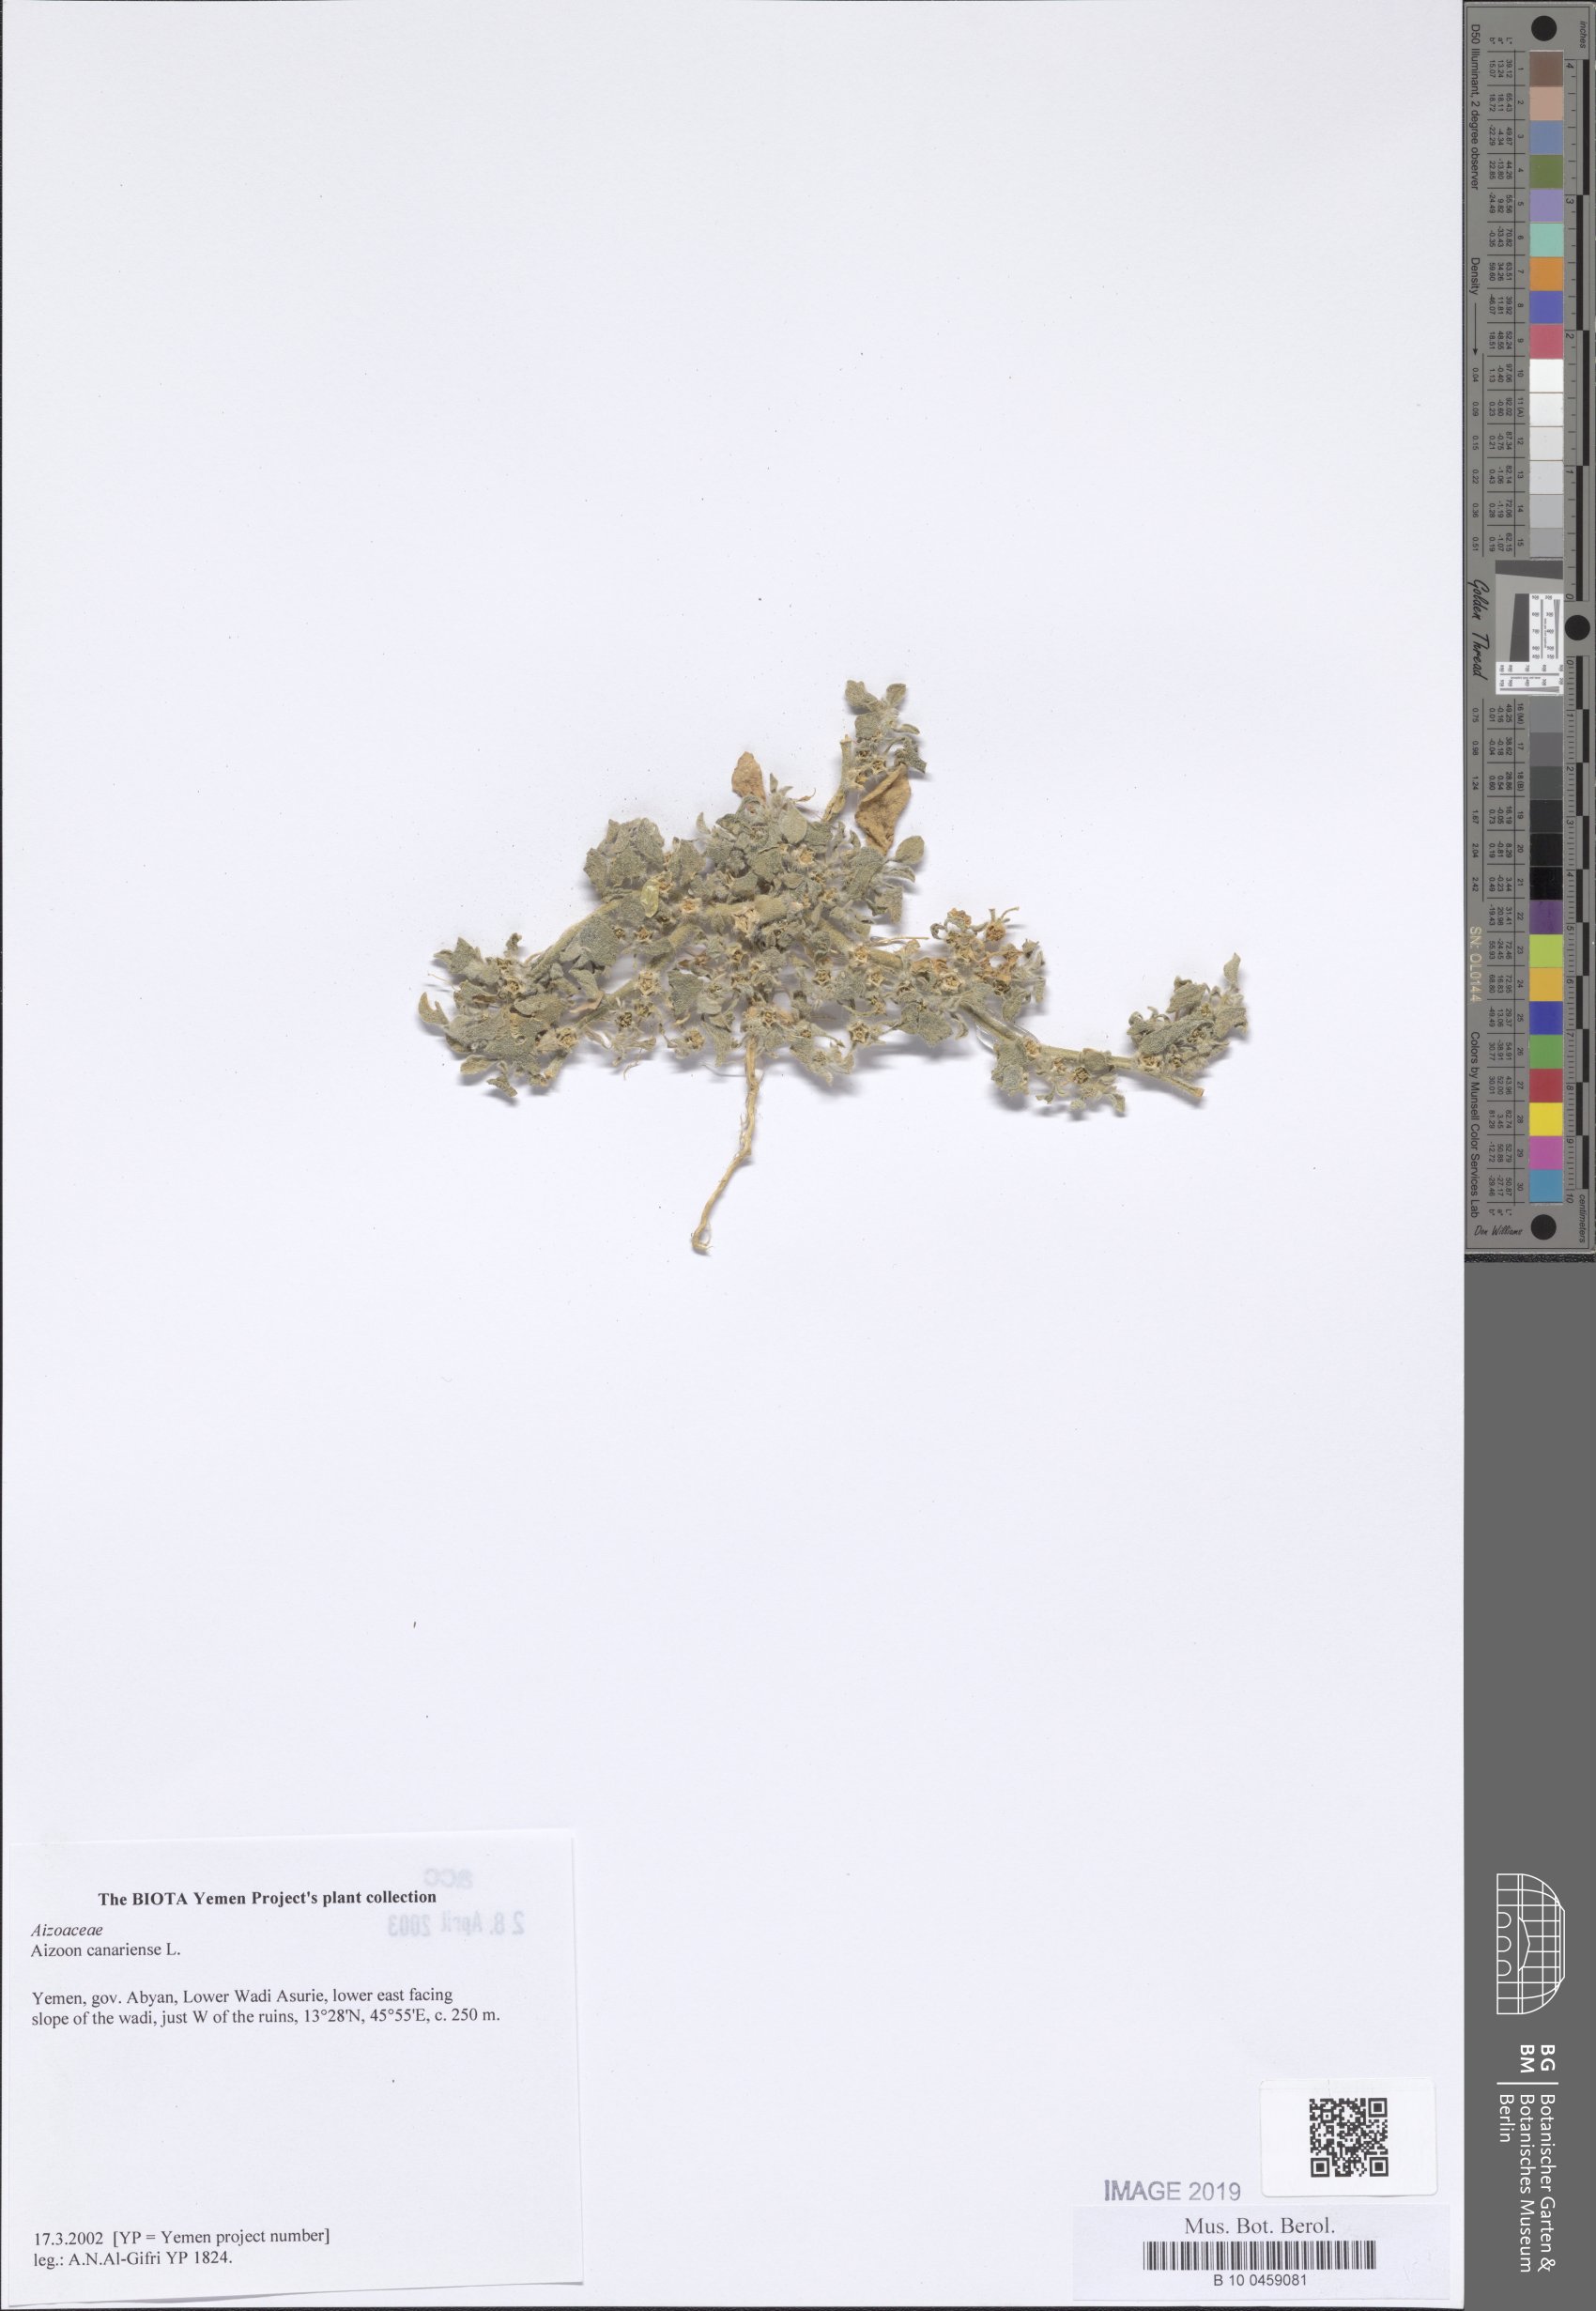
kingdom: Plantae
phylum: Tracheophyta
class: Magnoliopsida
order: Caryophyllales
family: Aizoaceae
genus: Aizoon
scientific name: Aizoon canariense
